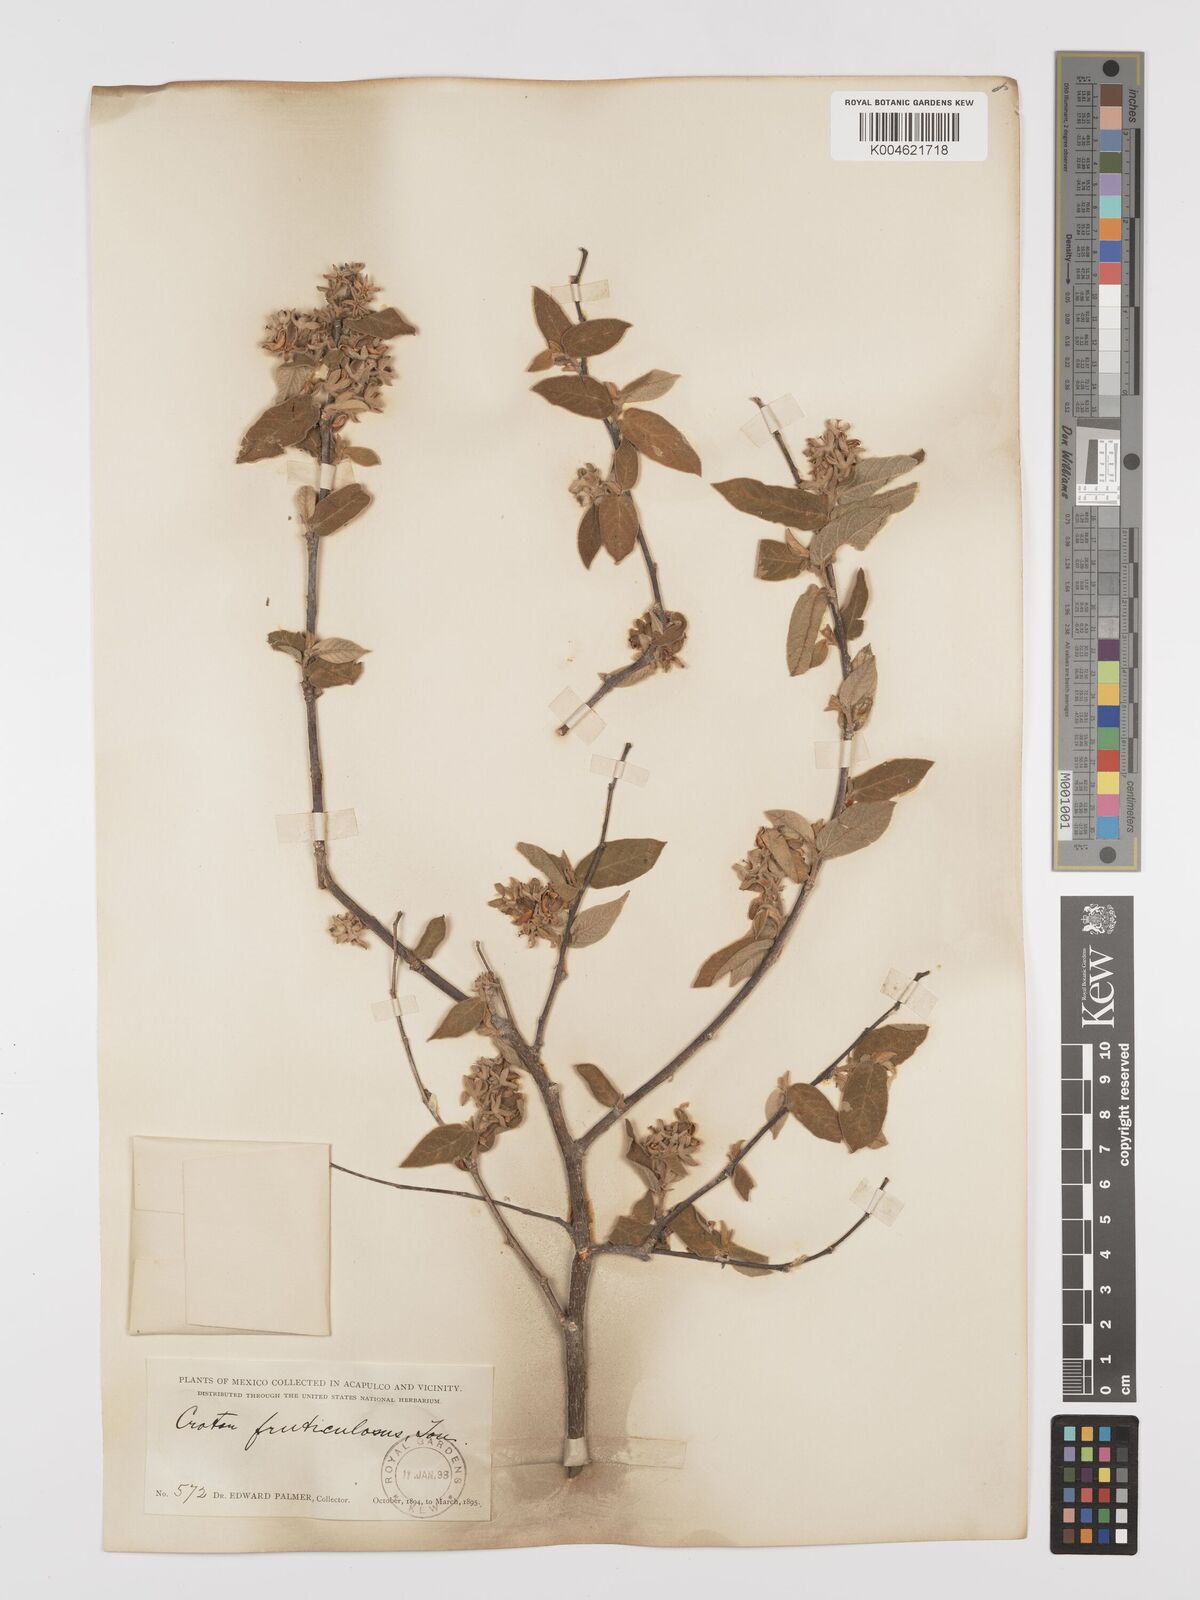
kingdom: Plantae
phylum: Tracheophyta
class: Magnoliopsida
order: Malpighiales
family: Euphorbiaceae
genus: Croton
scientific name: Croton fruticulosus
